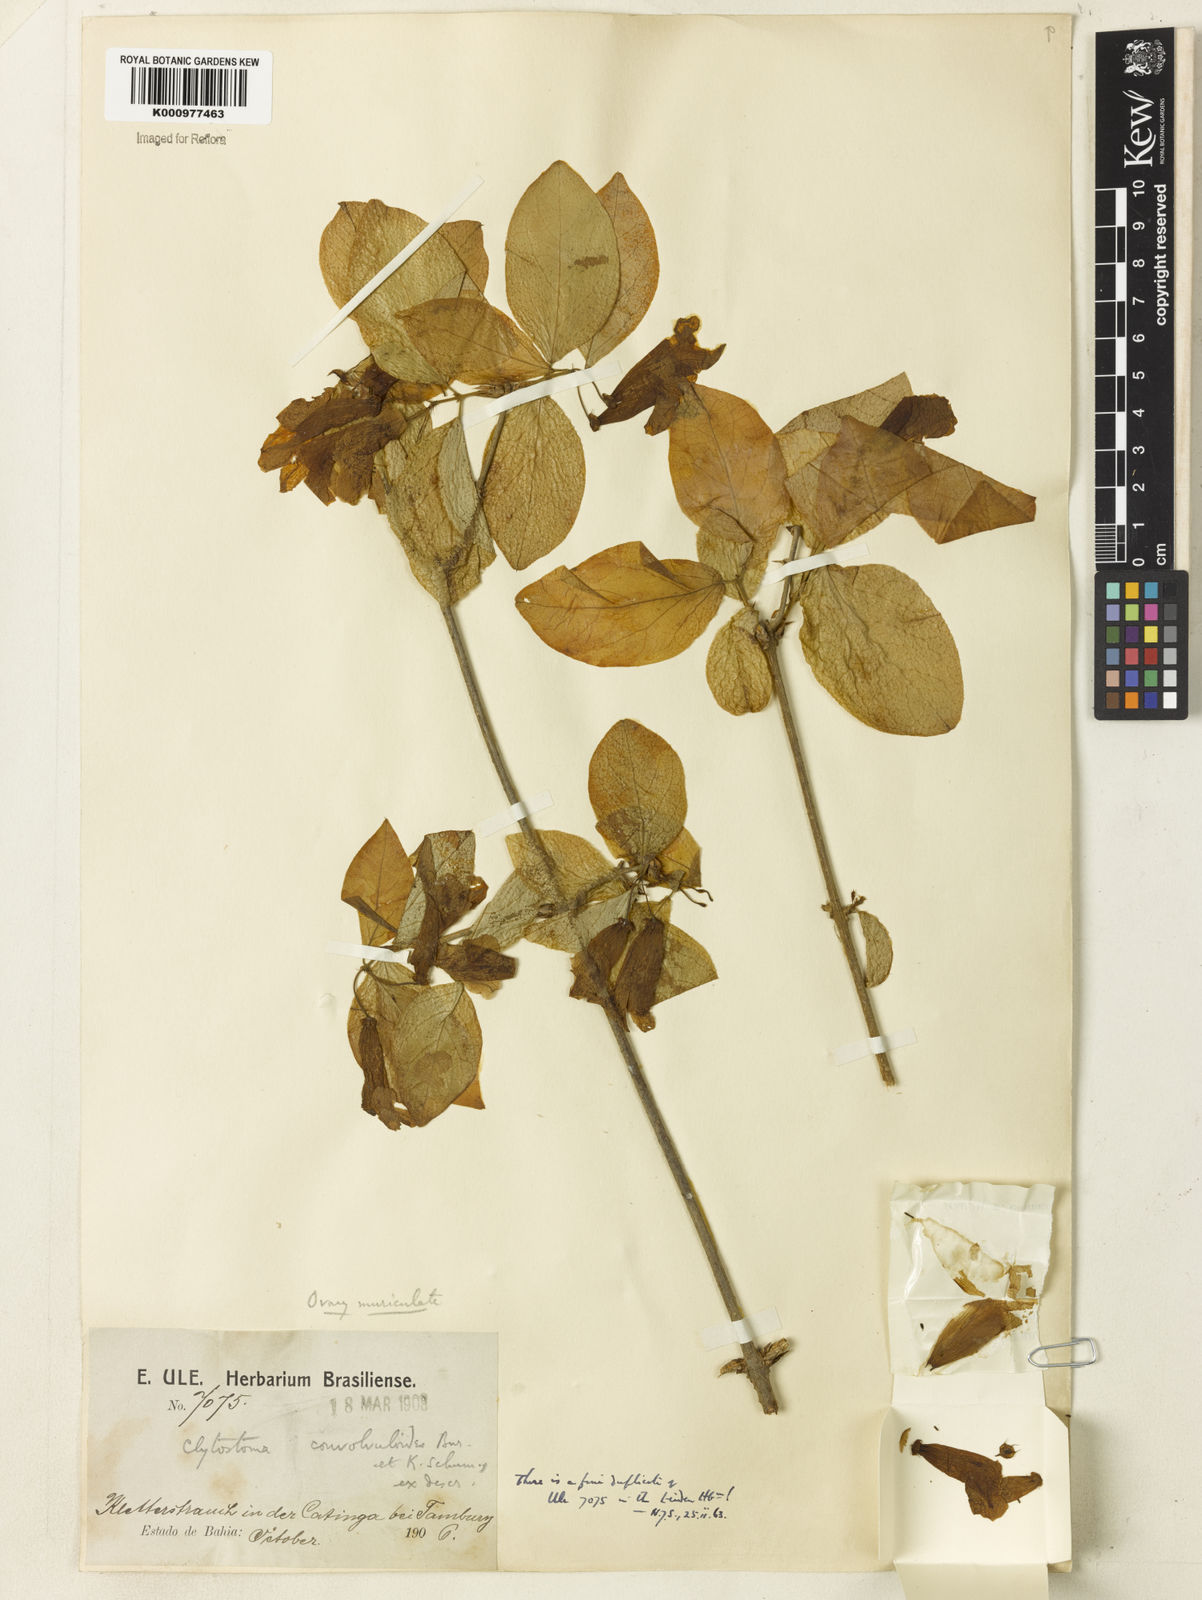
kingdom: Plantae
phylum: Tracheophyta
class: Magnoliopsida
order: Lamiales
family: Bignoniaceae
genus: Bignonia
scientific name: Bignonia convolvuloides
